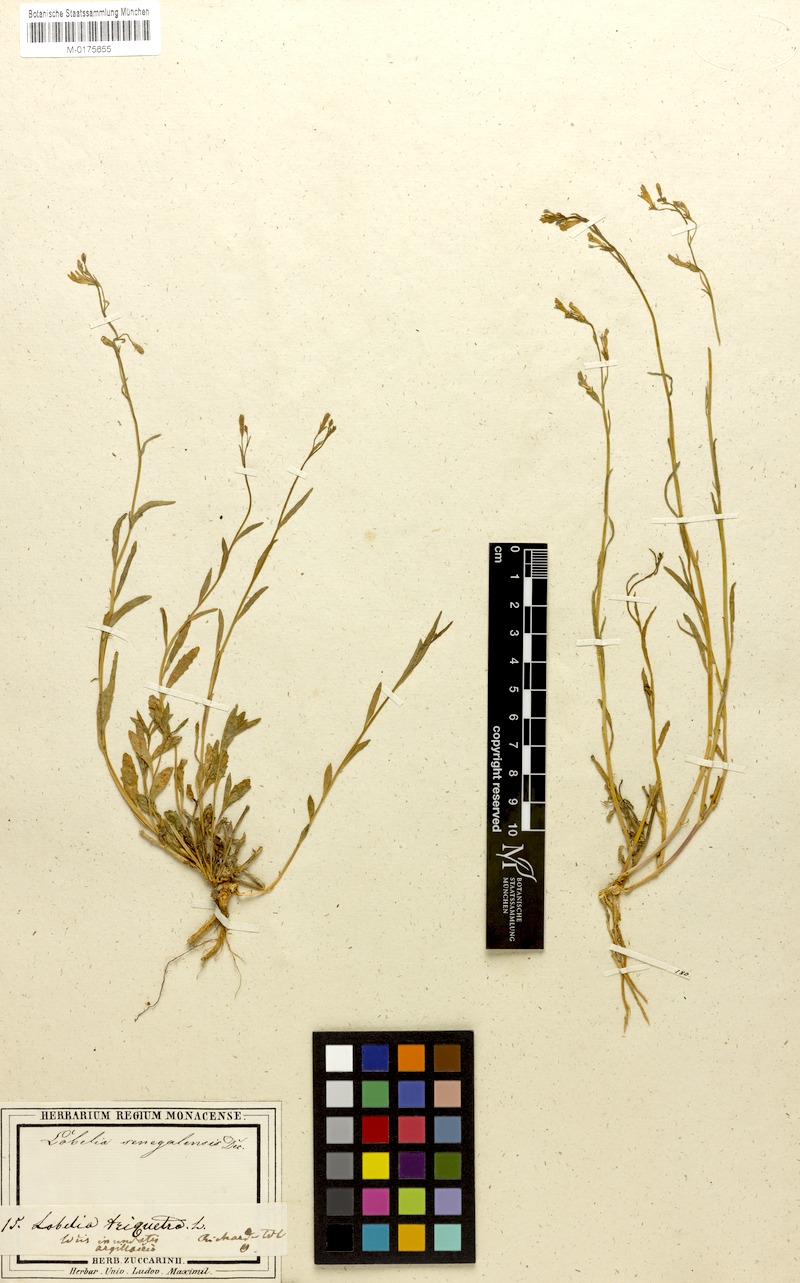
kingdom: Plantae
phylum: Tracheophyta
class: Magnoliopsida
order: Asterales
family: Campanulaceae
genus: Lobelia
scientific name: Lobelia erinus
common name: Edging lobelia
